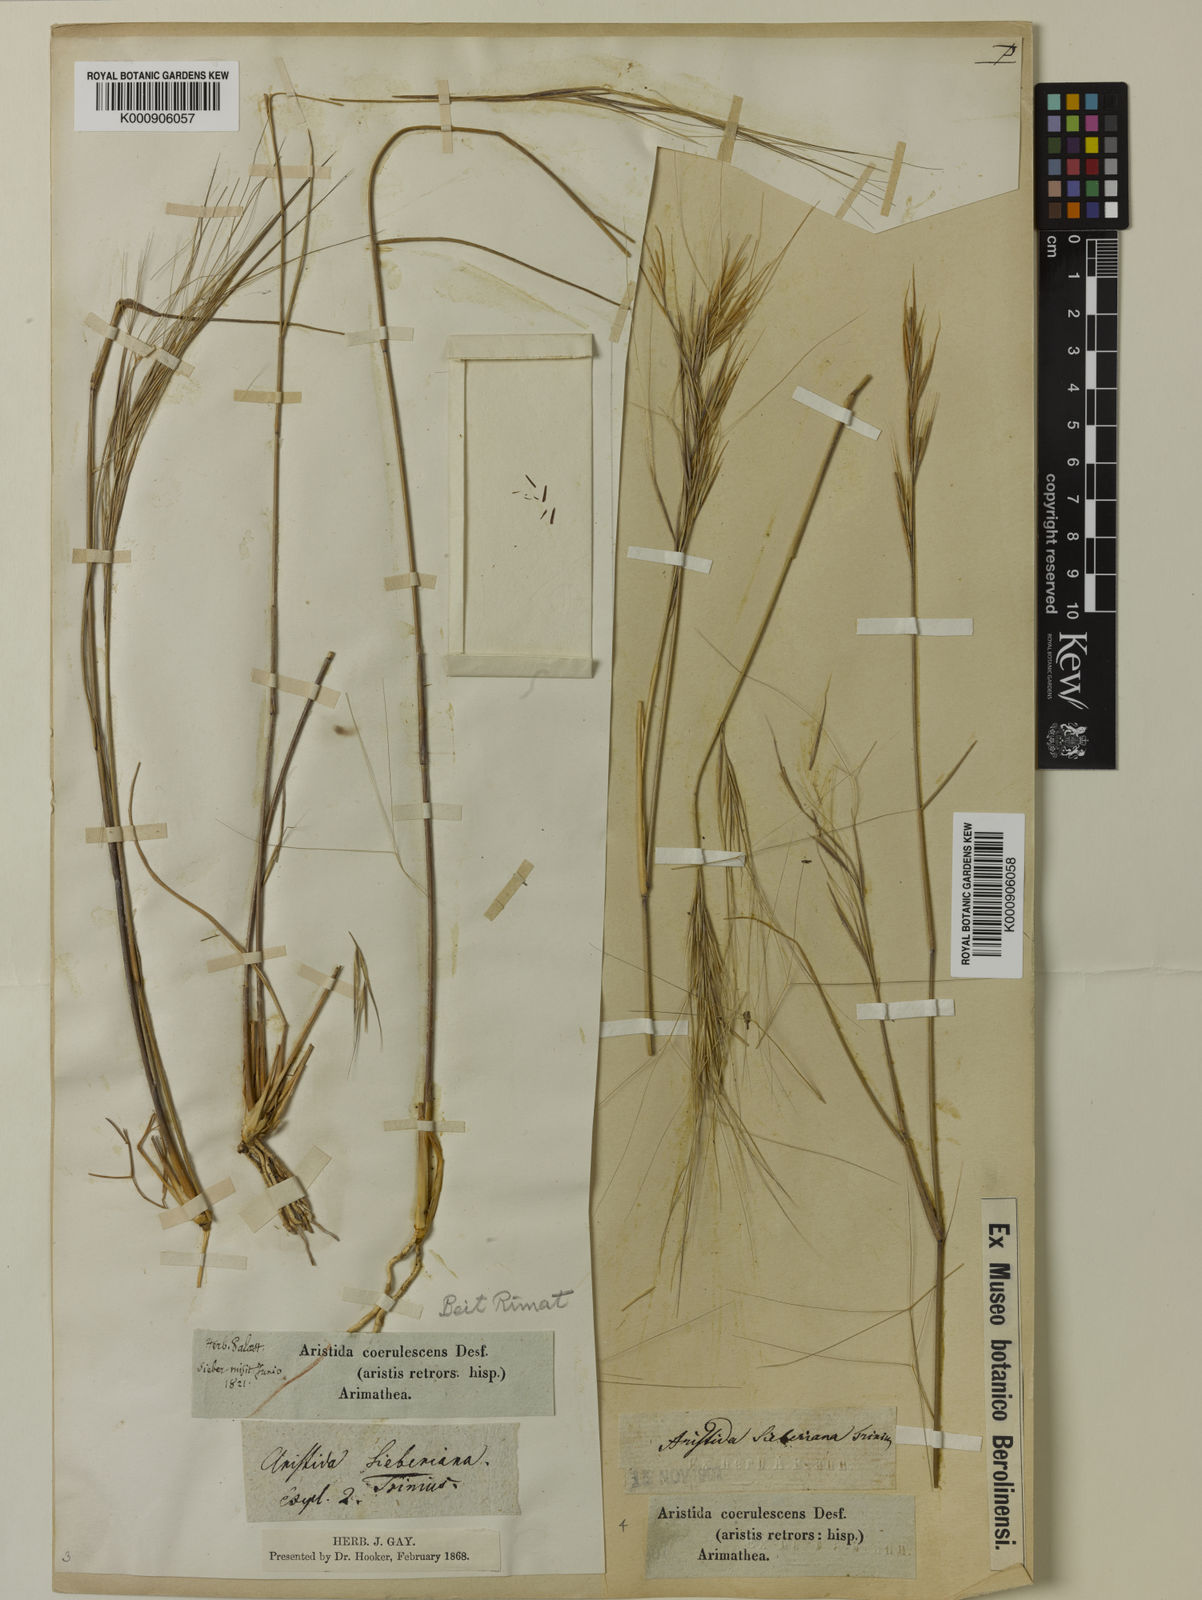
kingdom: Plantae
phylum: Tracheophyta
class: Liliopsida
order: Poales
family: Poaceae
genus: Aristida
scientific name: Aristida sieberiana
